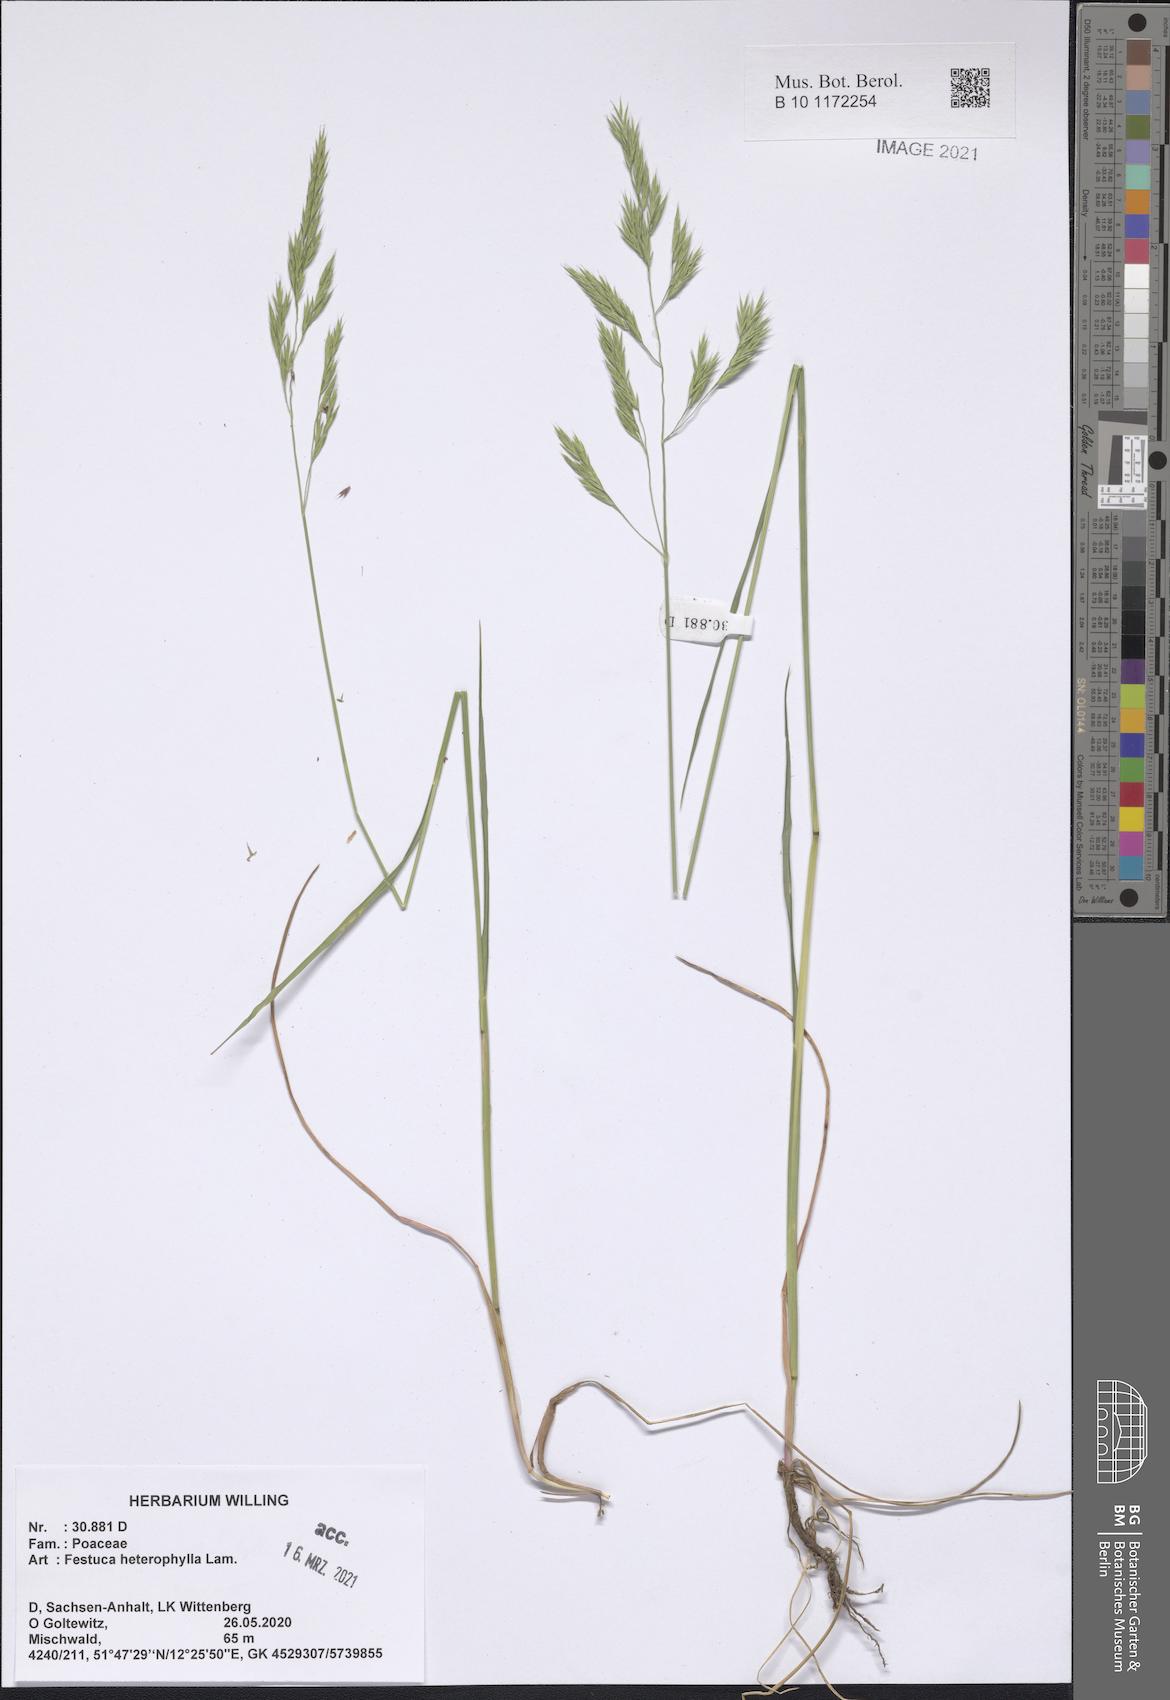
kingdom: Plantae
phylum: Tracheophyta
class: Liliopsida
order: Poales
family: Poaceae
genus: Festuca
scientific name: Festuca heterophylla
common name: Various-leaved fescue
